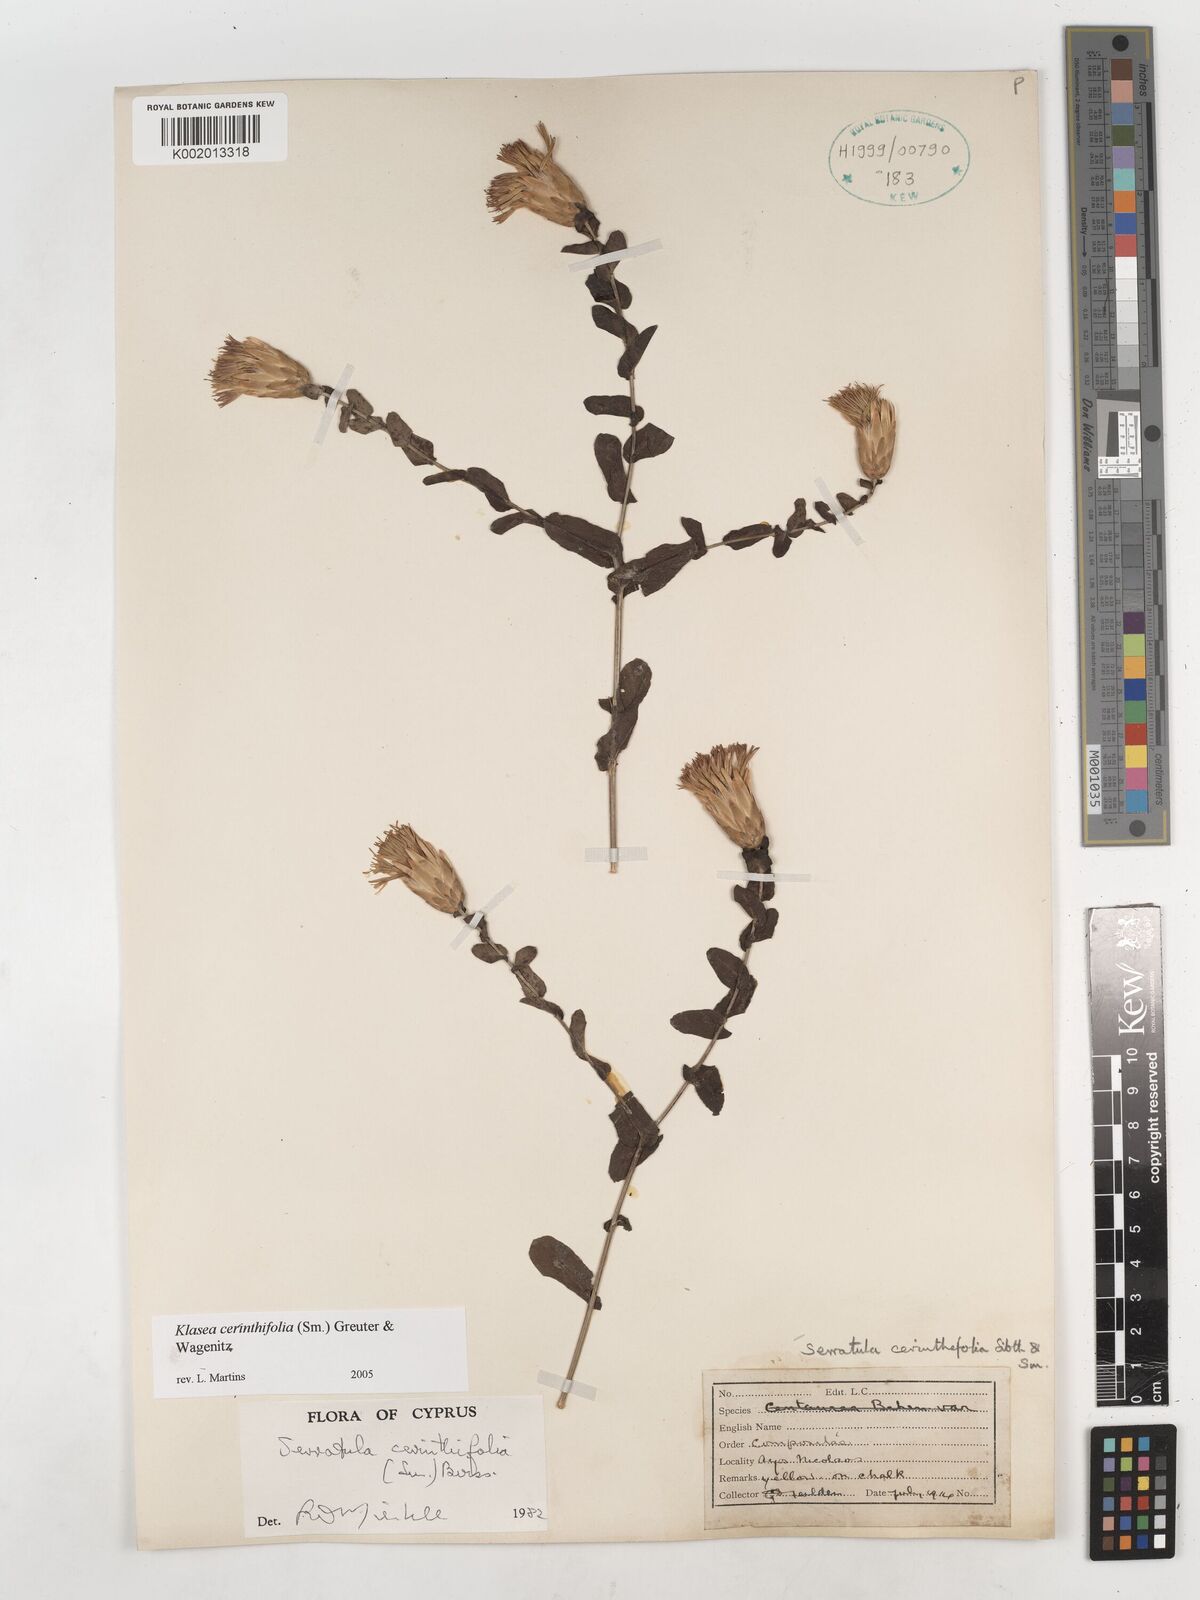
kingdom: Plantae
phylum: Tracheophyta
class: Magnoliopsida
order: Asterales
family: Asteraceae
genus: Klasea
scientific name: Klasea cerinthifolia
